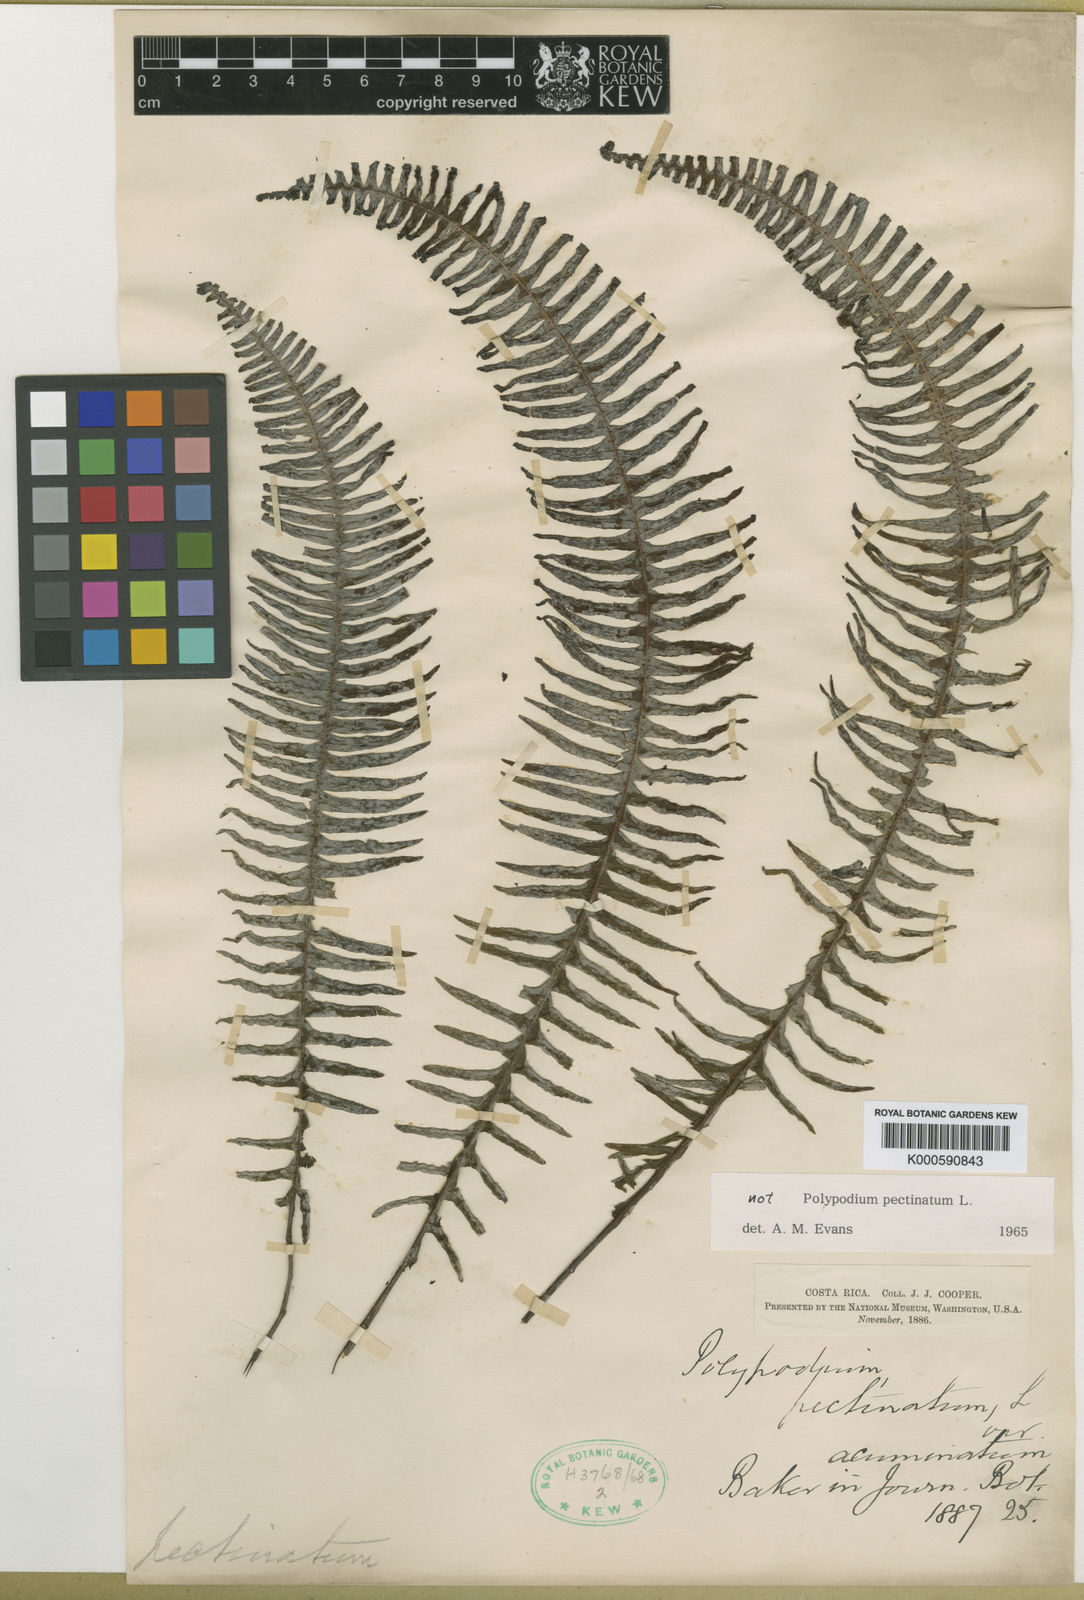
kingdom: Plantae
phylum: Tracheophyta
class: Polypodiopsida
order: Polypodiales
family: Polypodiaceae
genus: Pecluma
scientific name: Pecluma pectinata
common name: Msasa fern
